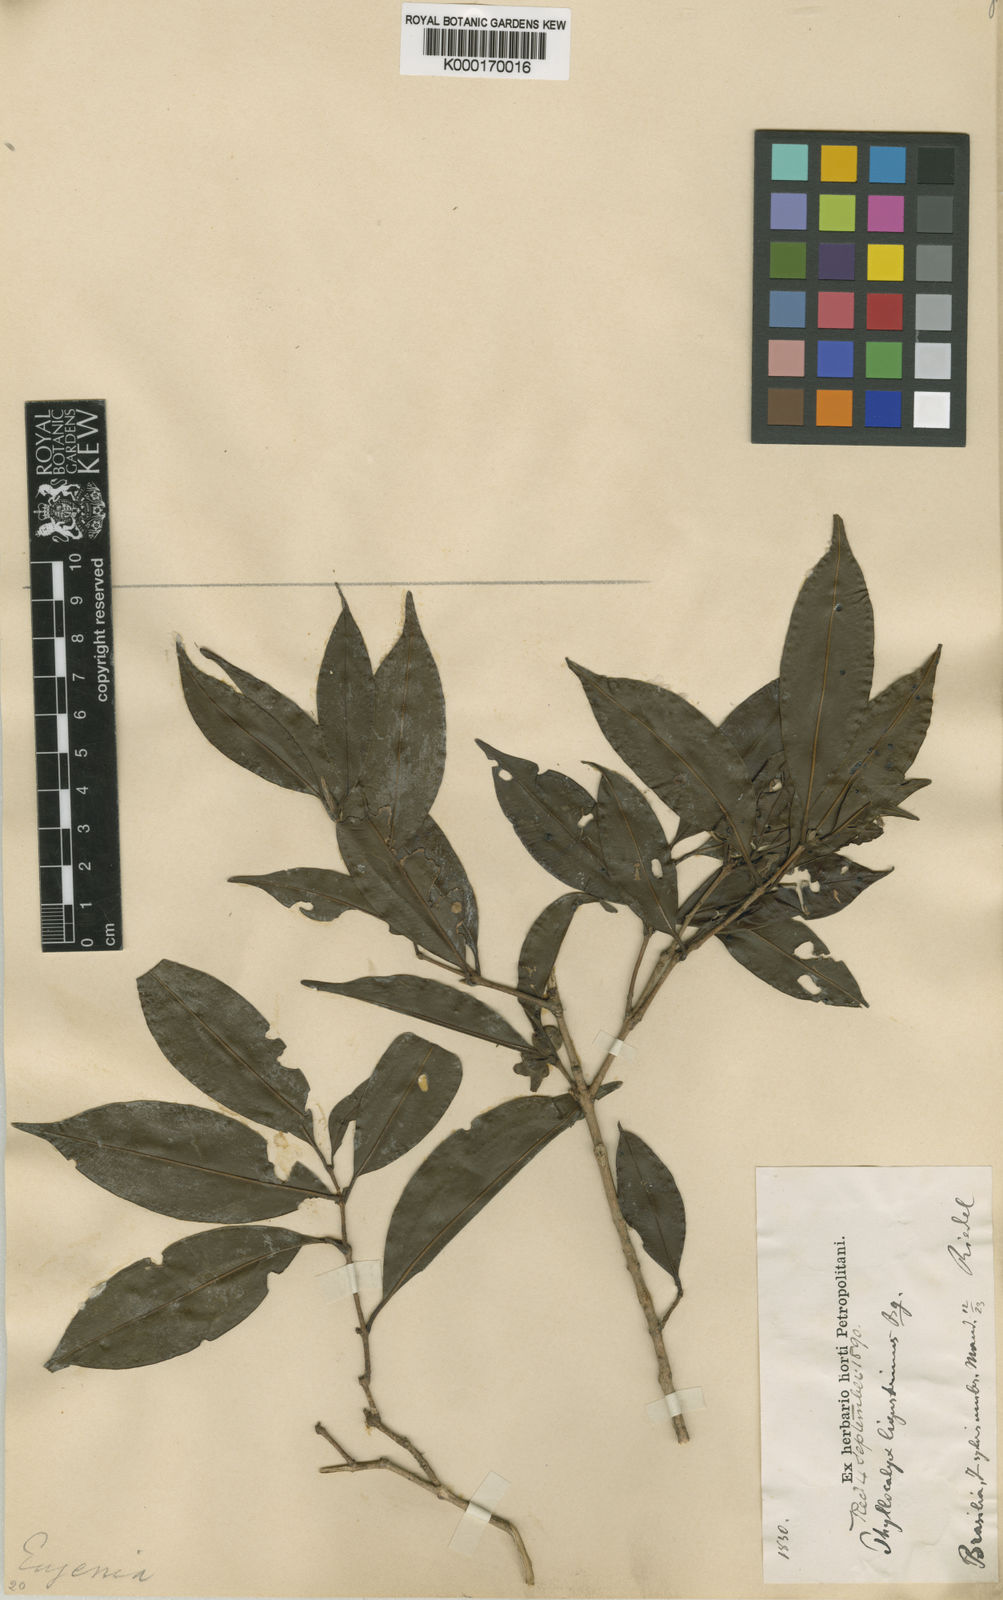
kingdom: Plantae
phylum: Tracheophyta
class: Magnoliopsida
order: Myrtales
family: Myrtaceae
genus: Eugenia
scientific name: Eugenia puberula
